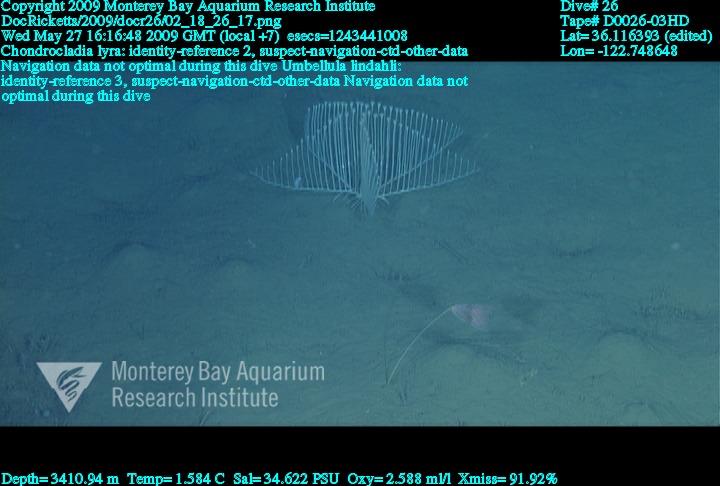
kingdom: Animalia
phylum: Porifera
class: Demospongiae
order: Poecilosclerida
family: Cladorhizidae
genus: Chondrocladia
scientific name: Chondrocladia lyra
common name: Harp sponge
